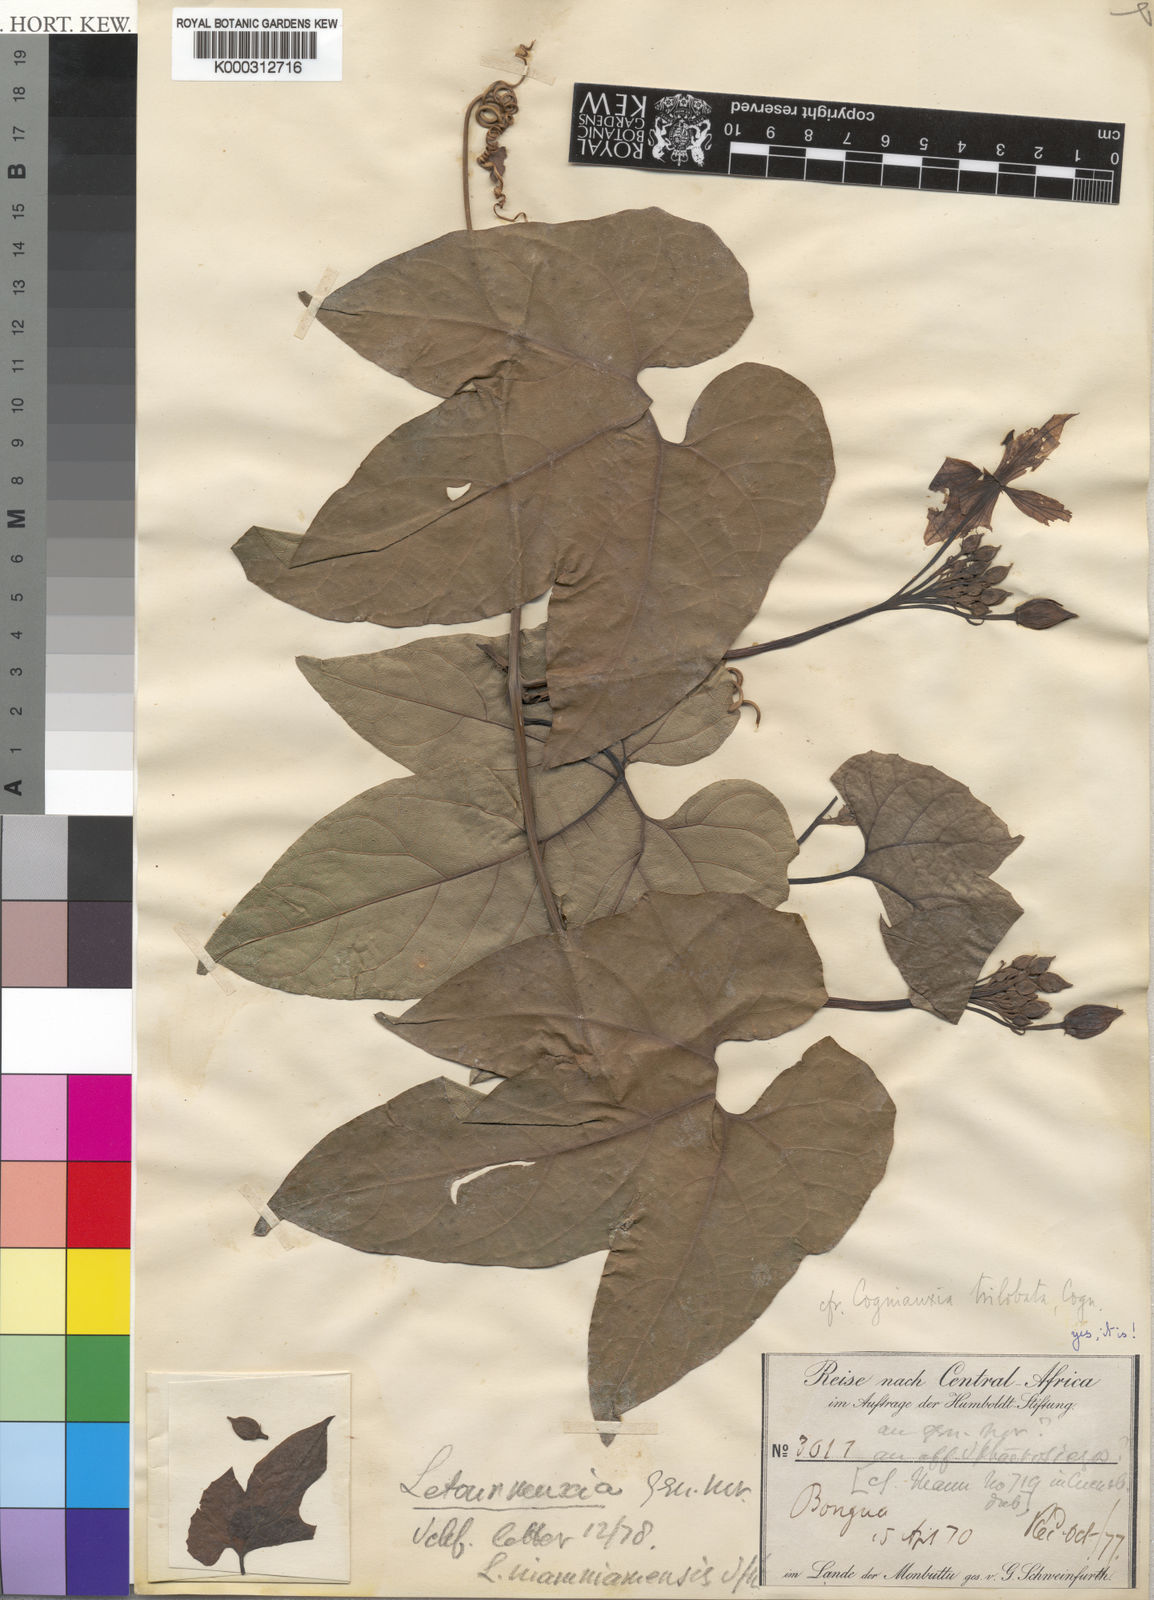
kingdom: Plantae
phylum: Tracheophyta
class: Magnoliopsida
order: Cucurbitales
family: Cucurbitaceae
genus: Cogniauxia
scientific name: Cogniauxia trilobata
